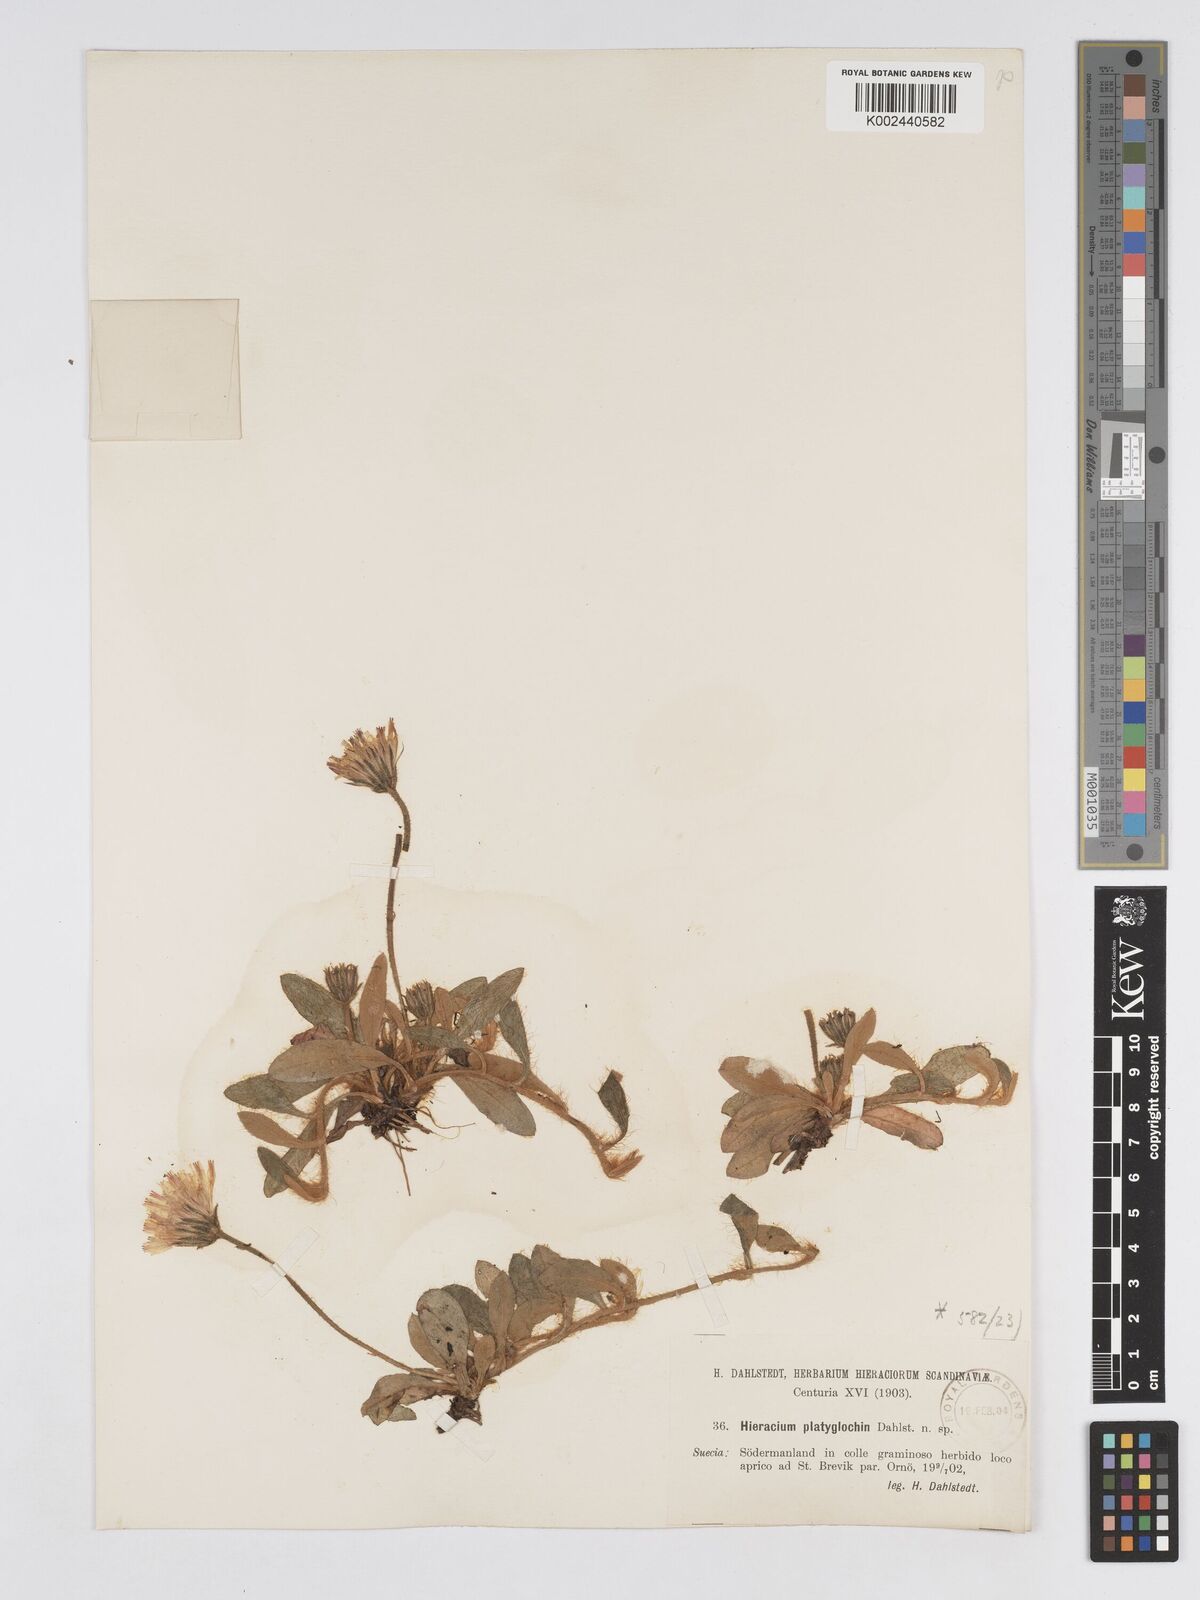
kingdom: Plantae
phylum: Tracheophyta
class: Magnoliopsida
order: Asterales
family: Asteraceae
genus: Pilosella
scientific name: Pilosella longisquama
